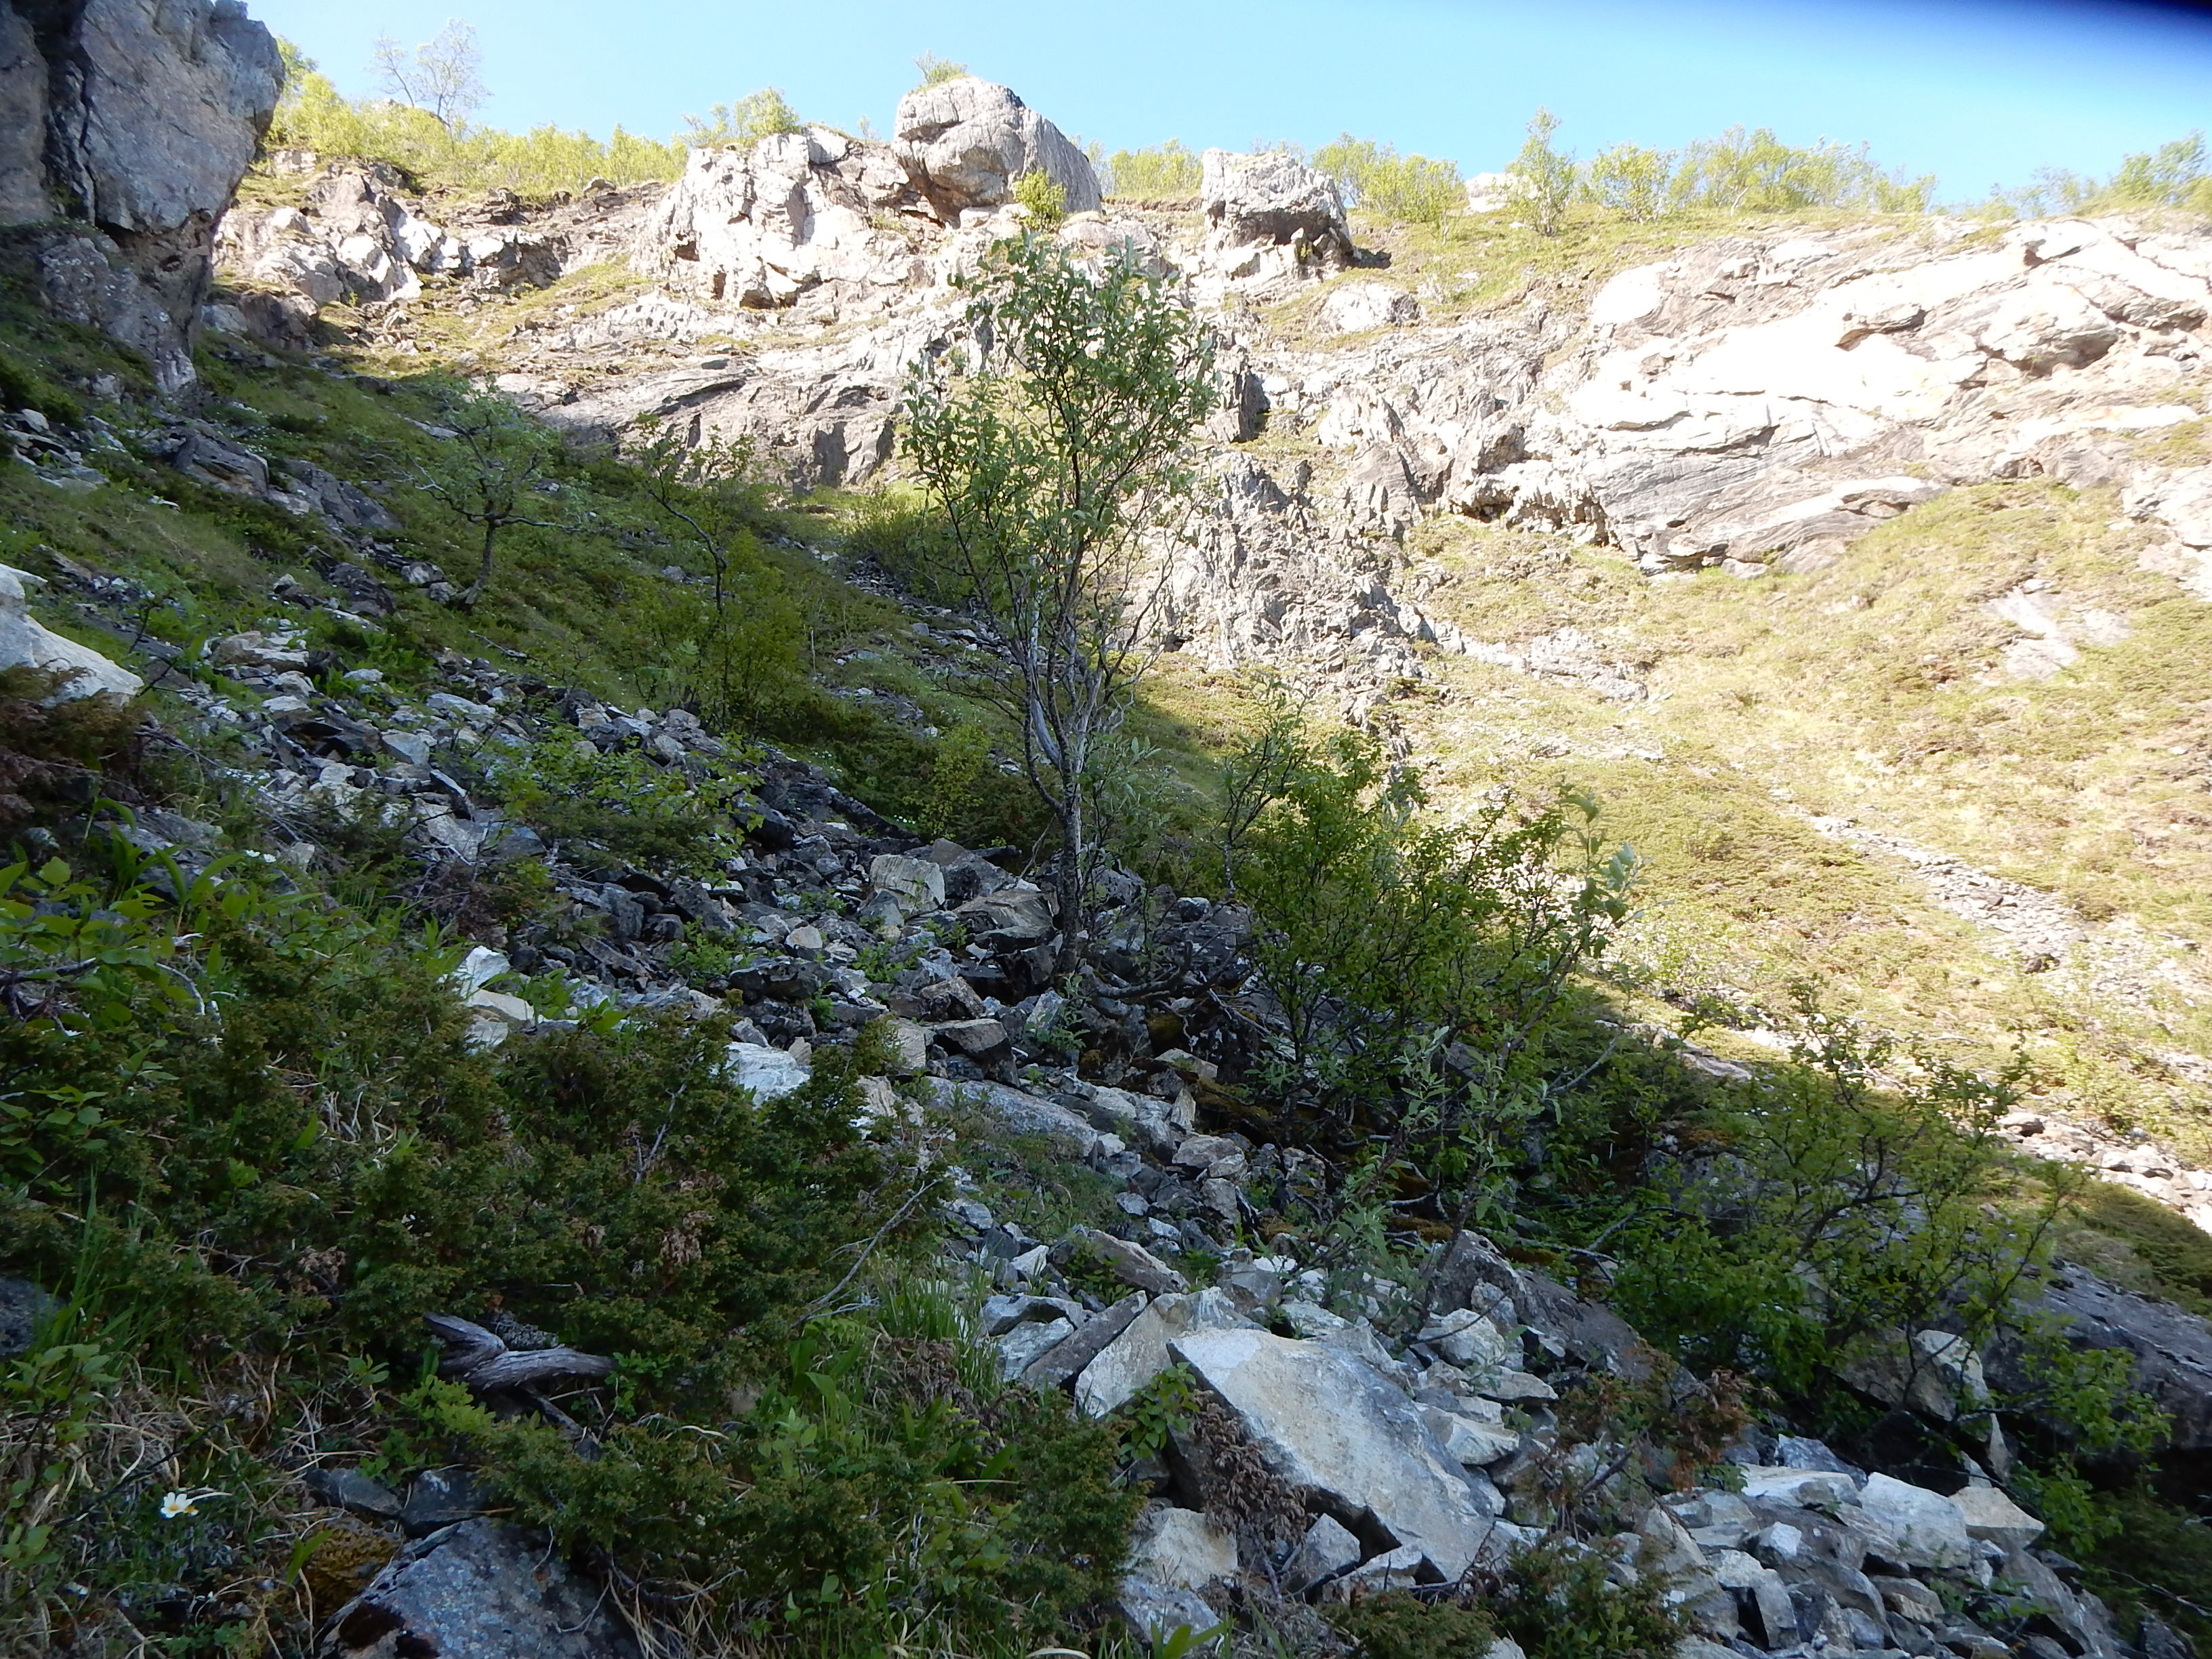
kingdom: Plantae
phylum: Tracheophyta
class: Magnoliopsida
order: Rosales
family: Rosaceae
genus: Hedlundia
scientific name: Hedlundia lancifolia
